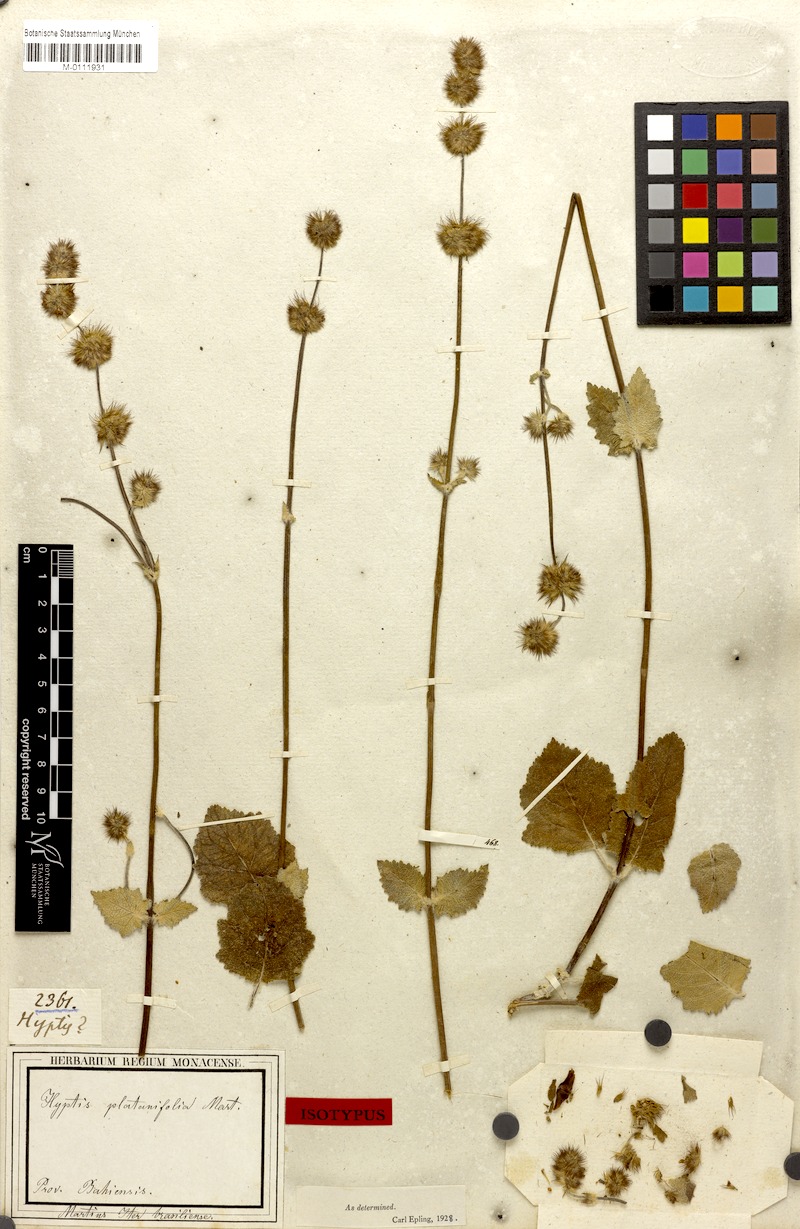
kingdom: Plantae
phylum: Tracheophyta
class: Magnoliopsida
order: Lamiales
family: Lamiaceae
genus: Gymneia
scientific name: Gymneia platanifolia
